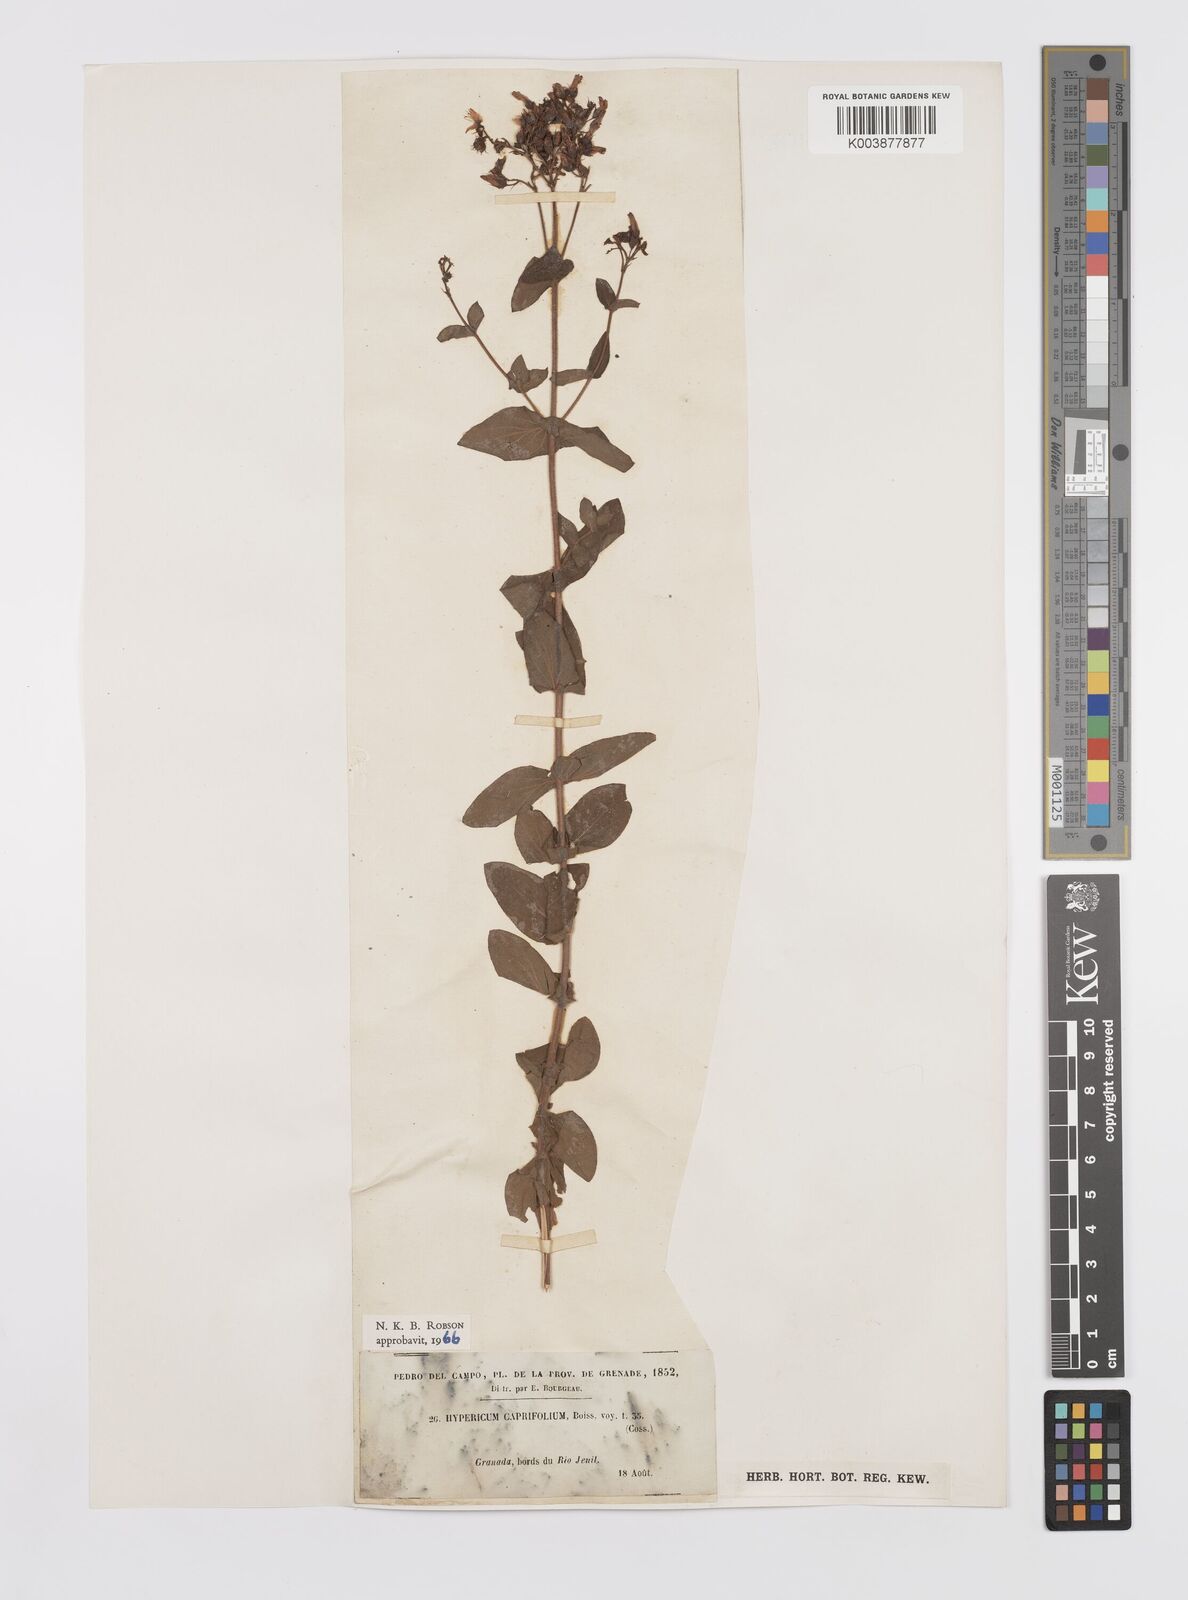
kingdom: Plantae
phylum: Tracheophyta
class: Magnoliopsida
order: Malpighiales
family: Hypericaceae
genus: Hypericum
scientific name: Hypericum caprifolium
